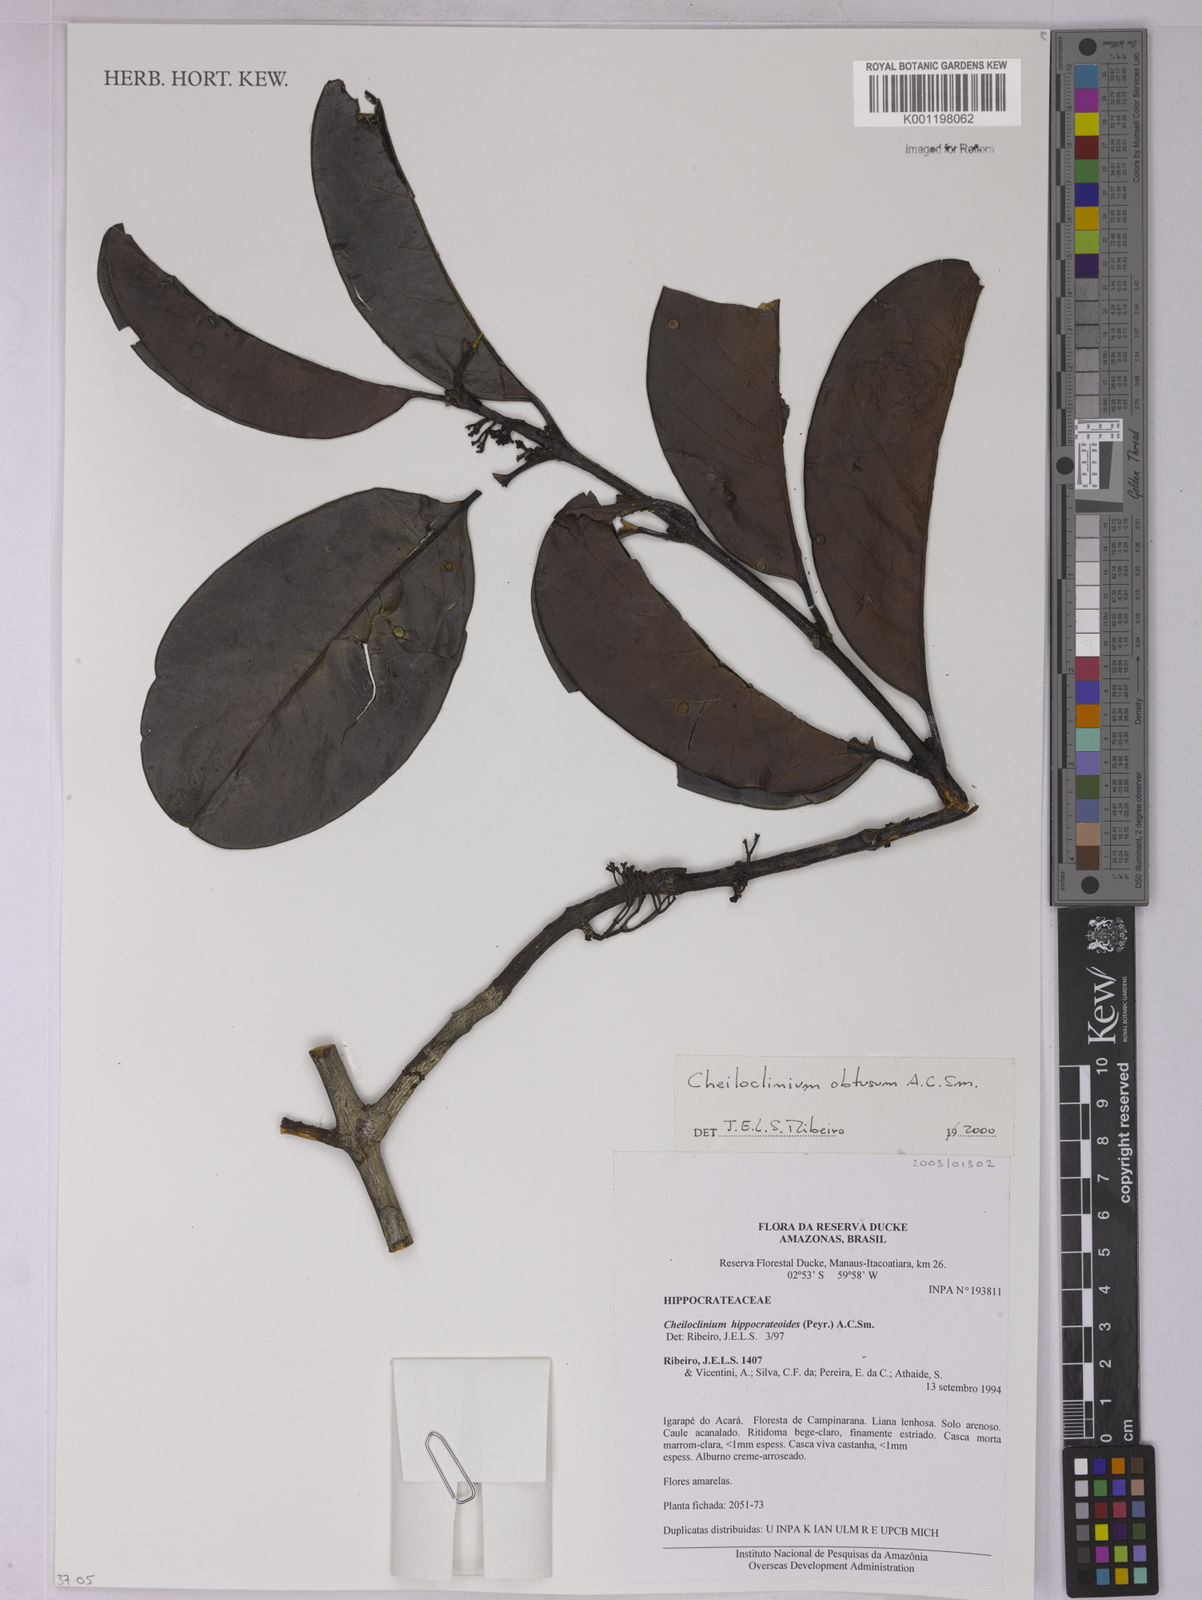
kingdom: Plantae
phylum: Tracheophyta
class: Magnoliopsida
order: Celastrales
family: Celastraceae
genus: Cheiloclinium
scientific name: Cheiloclinium obtusum
